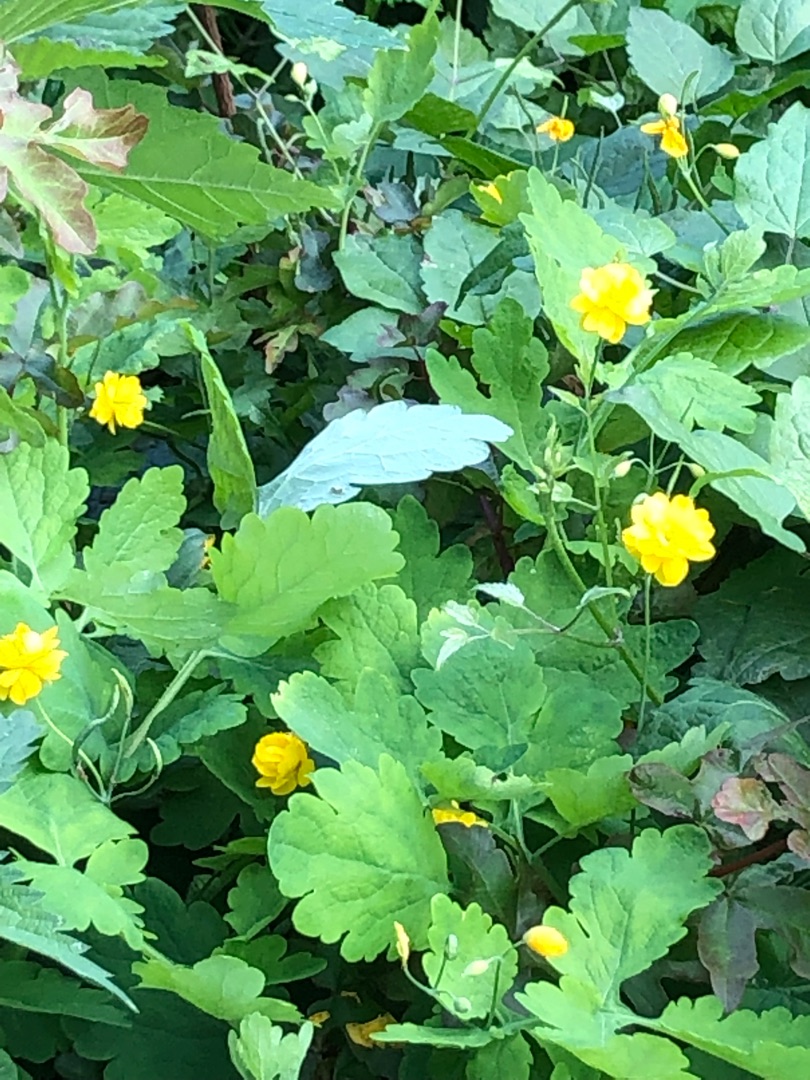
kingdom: Plantae
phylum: Tracheophyta
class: Magnoliopsida
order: Ranunculales
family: Papaveraceae
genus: Chelidonium
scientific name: Chelidonium majus
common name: Svaleurt
